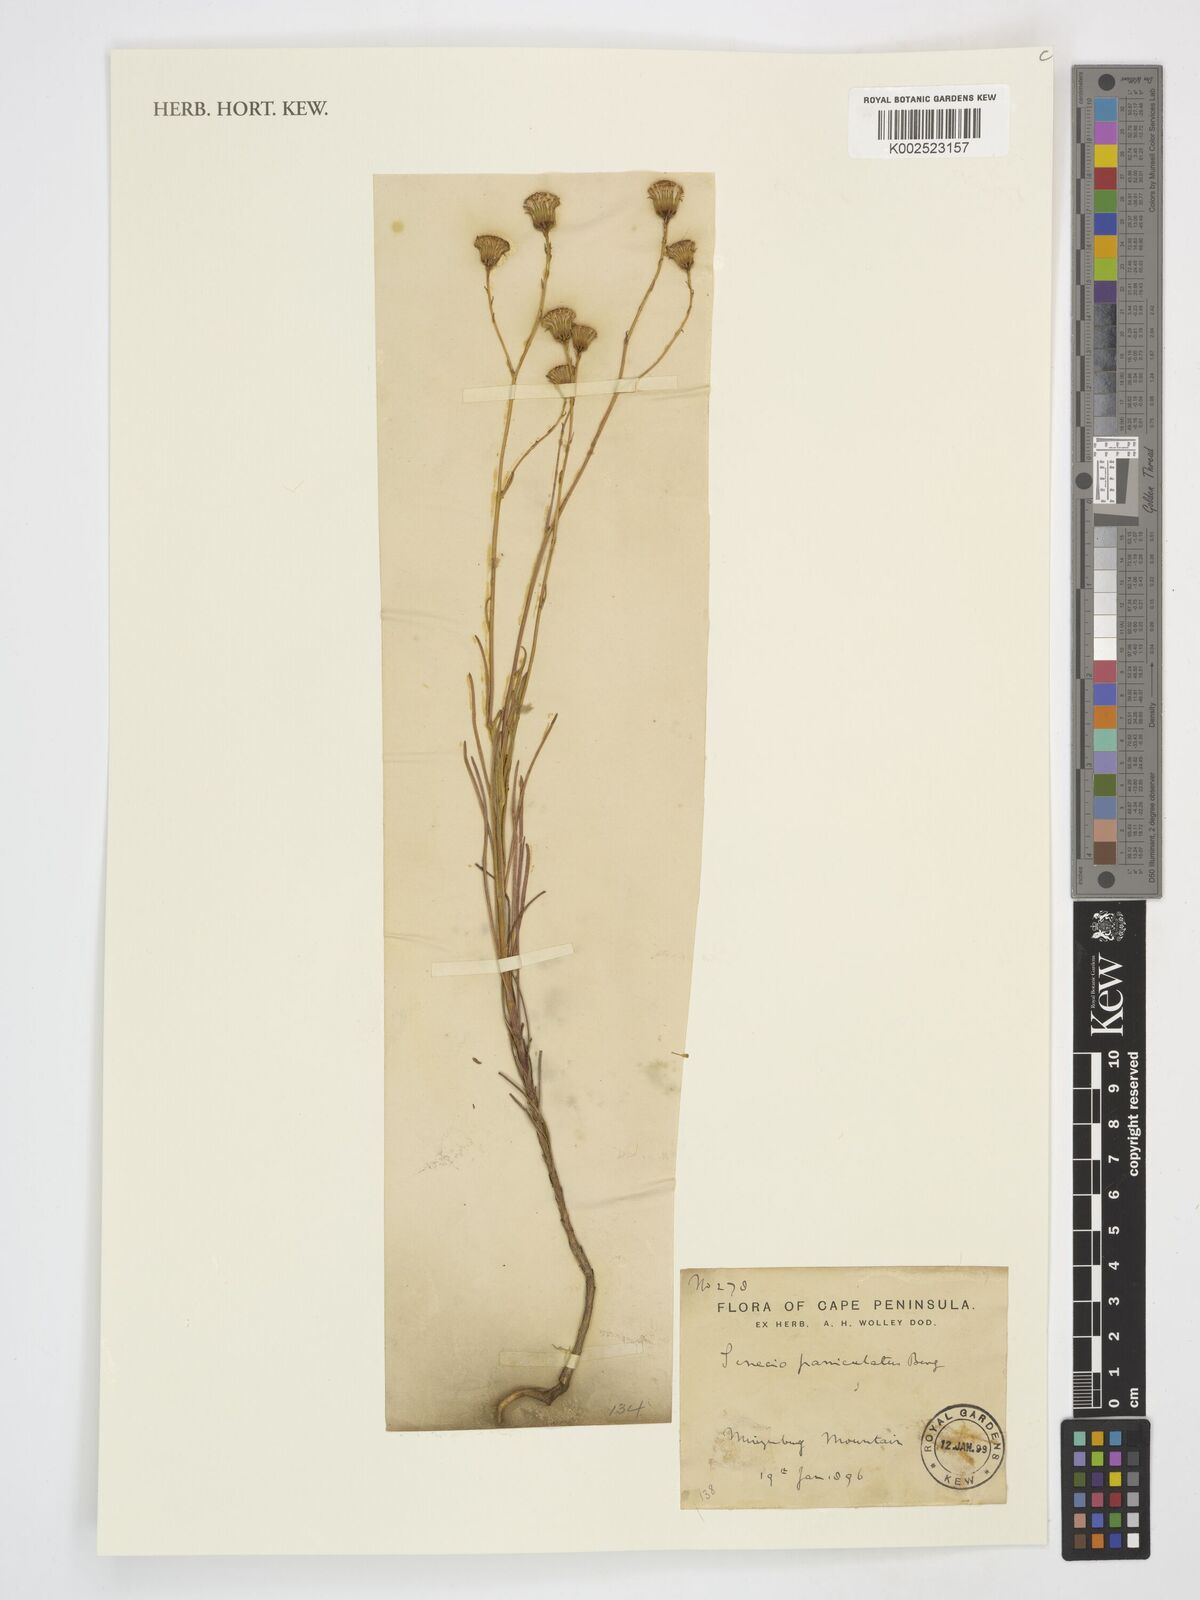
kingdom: Plantae
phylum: Tracheophyta
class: Magnoliopsida
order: Asterales
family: Asteraceae
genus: Senecio
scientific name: Senecio paniculatus
